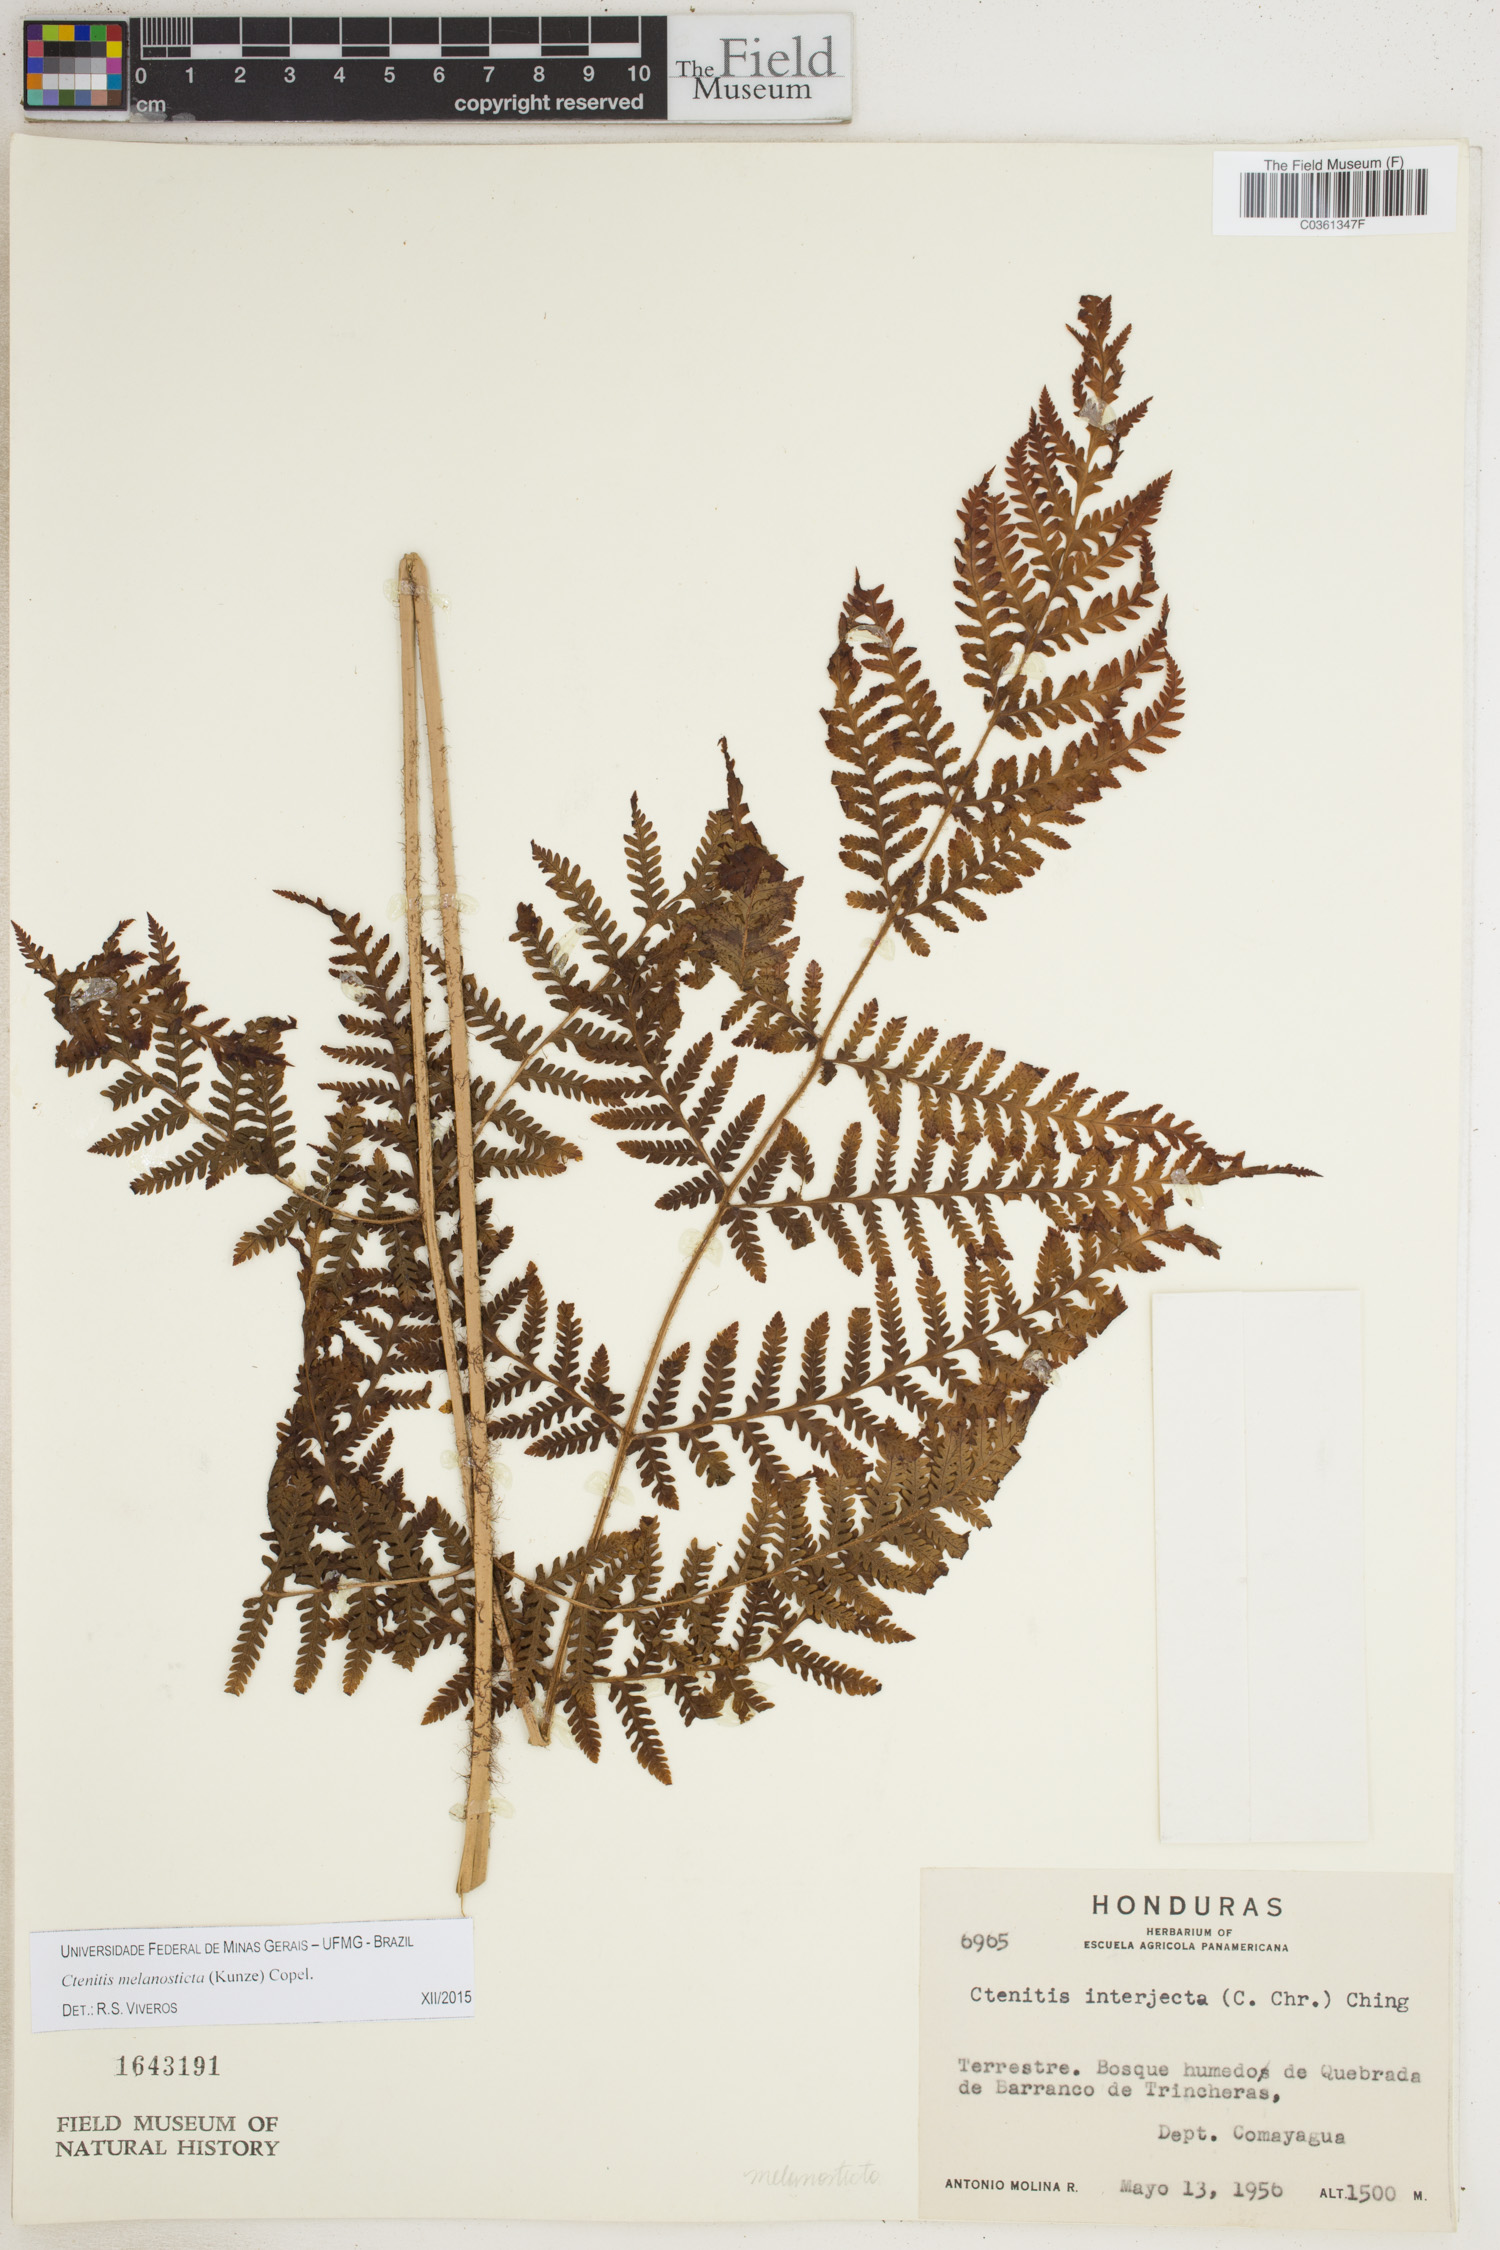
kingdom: Plantae
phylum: Tracheophyta
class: Polypodiopsida
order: Polypodiales
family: Dryopteridaceae
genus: Ctenitis
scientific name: Ctenitis melanosticta
